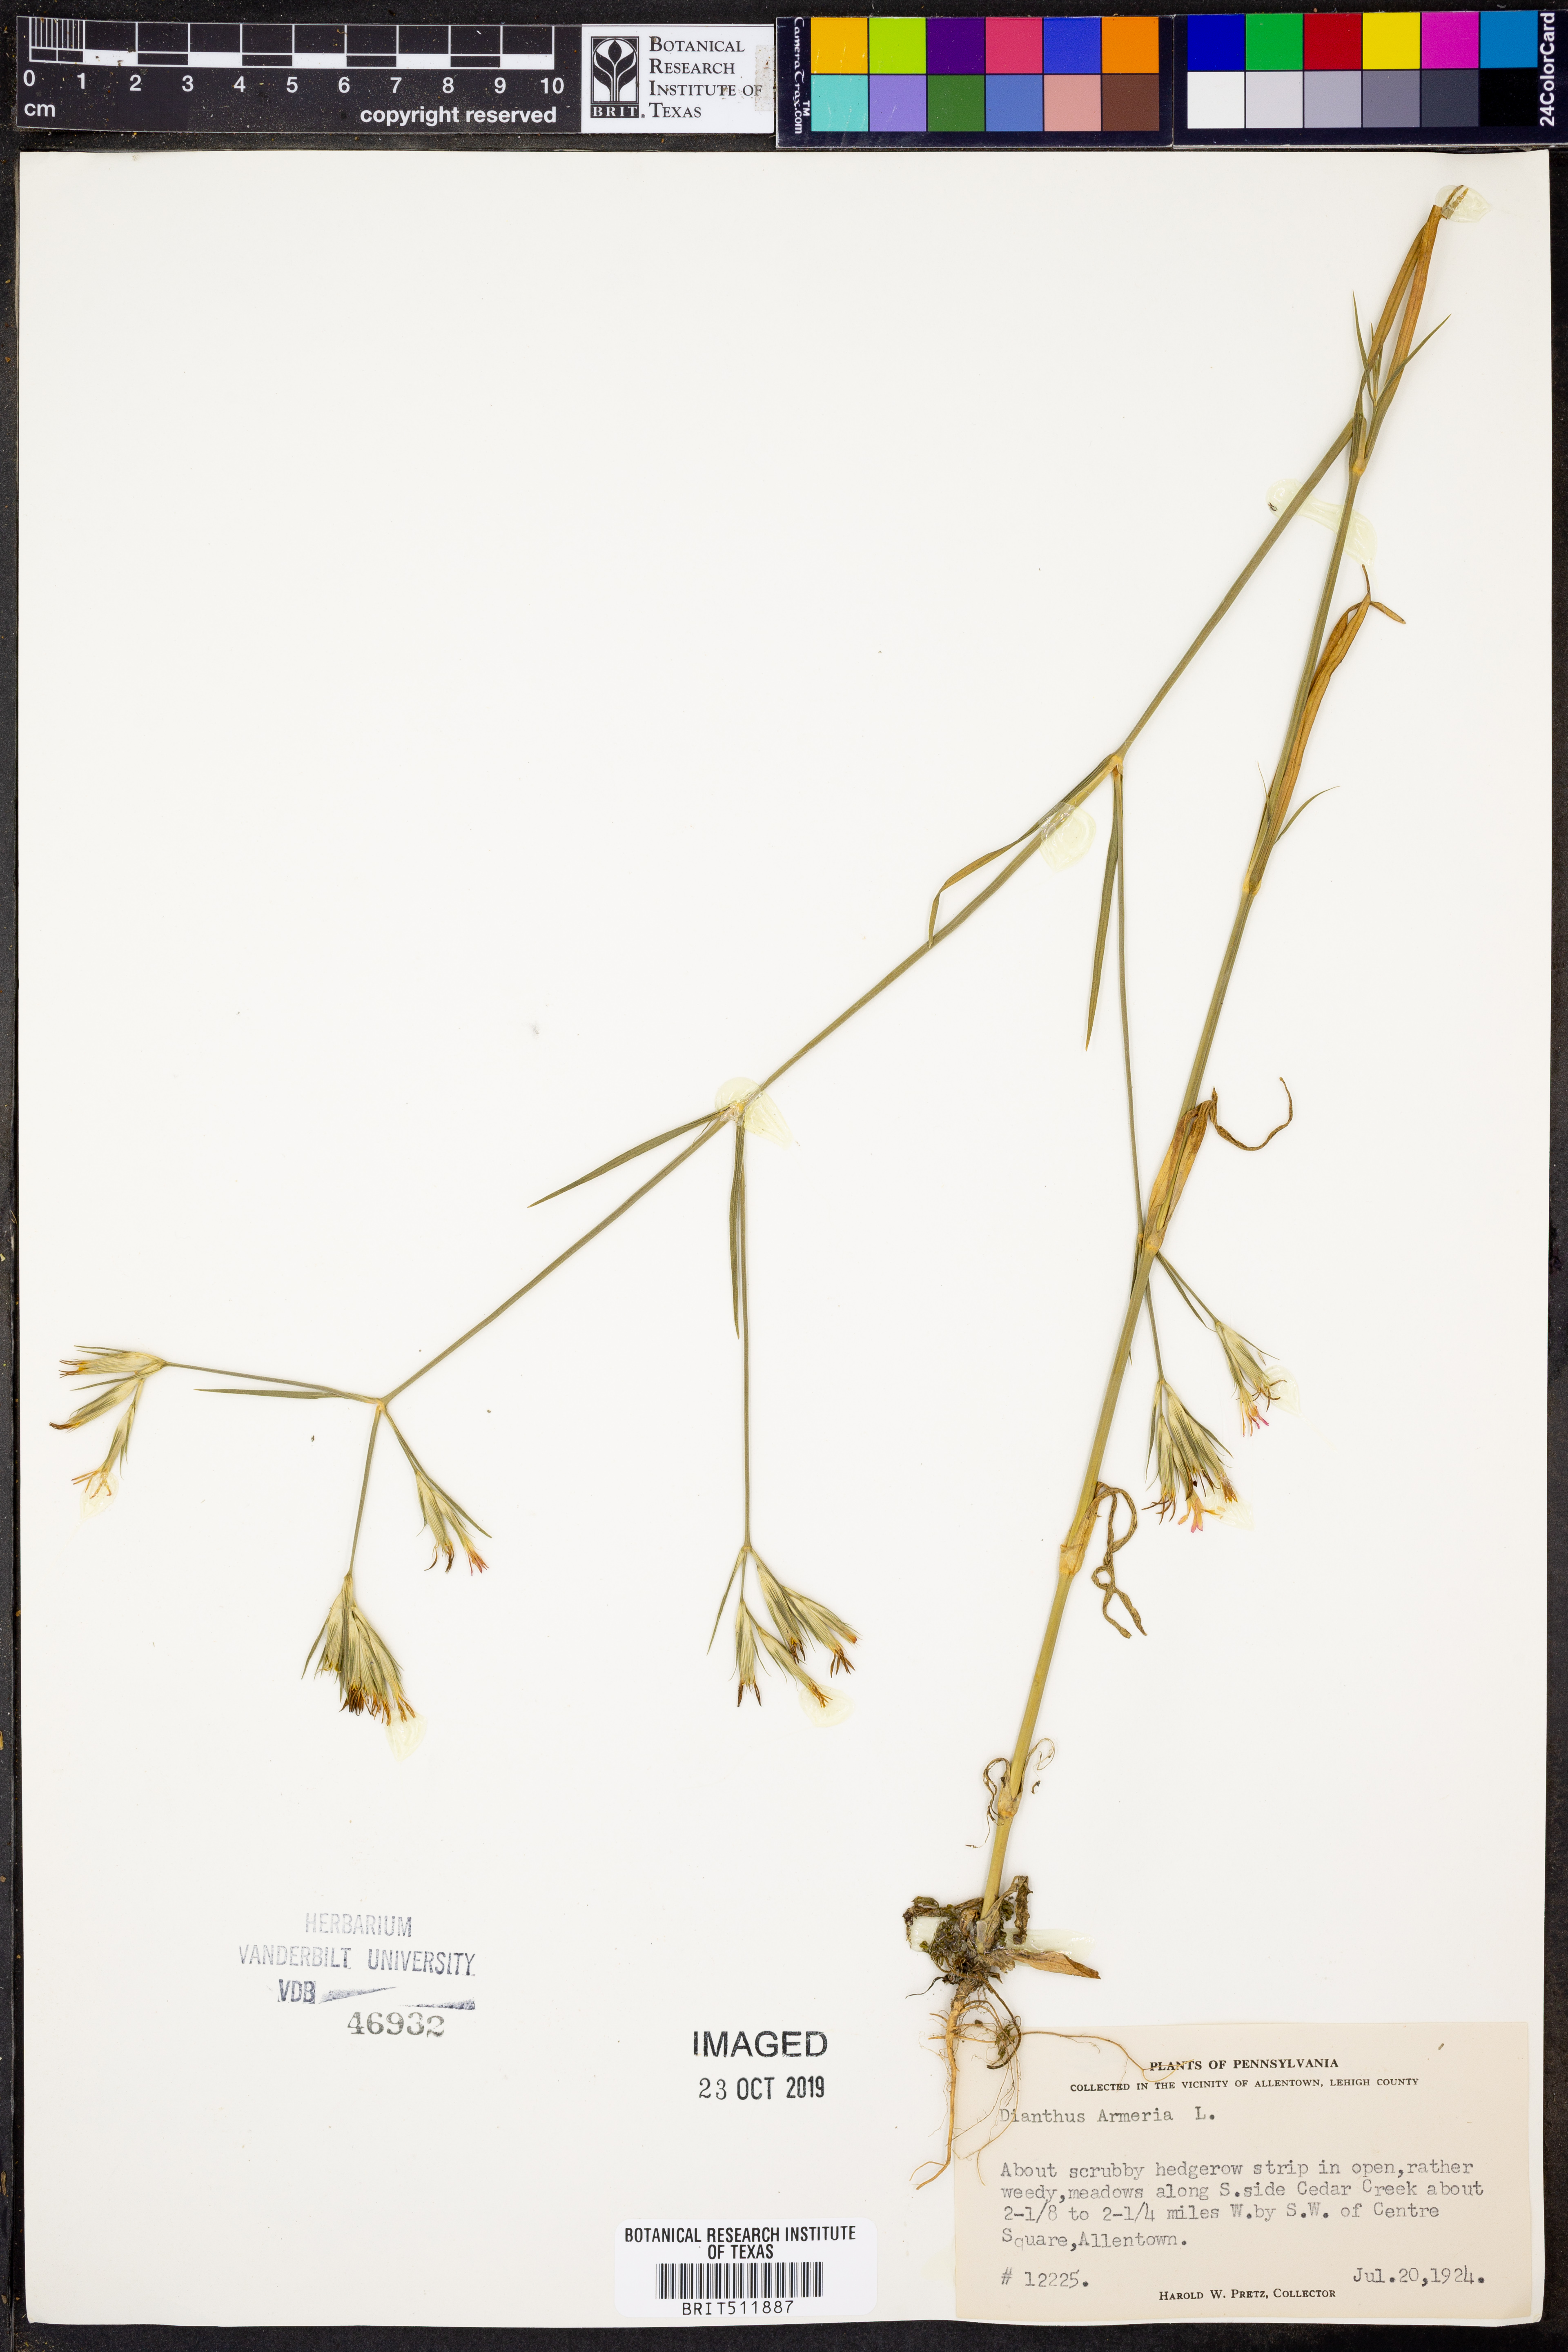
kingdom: Plantae
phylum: Tracheophyta
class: Magnoliopsida
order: Caryophyllales
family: Caryophyllaceae
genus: Dianthus
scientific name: Dianthus armeria
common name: Deptford pink
